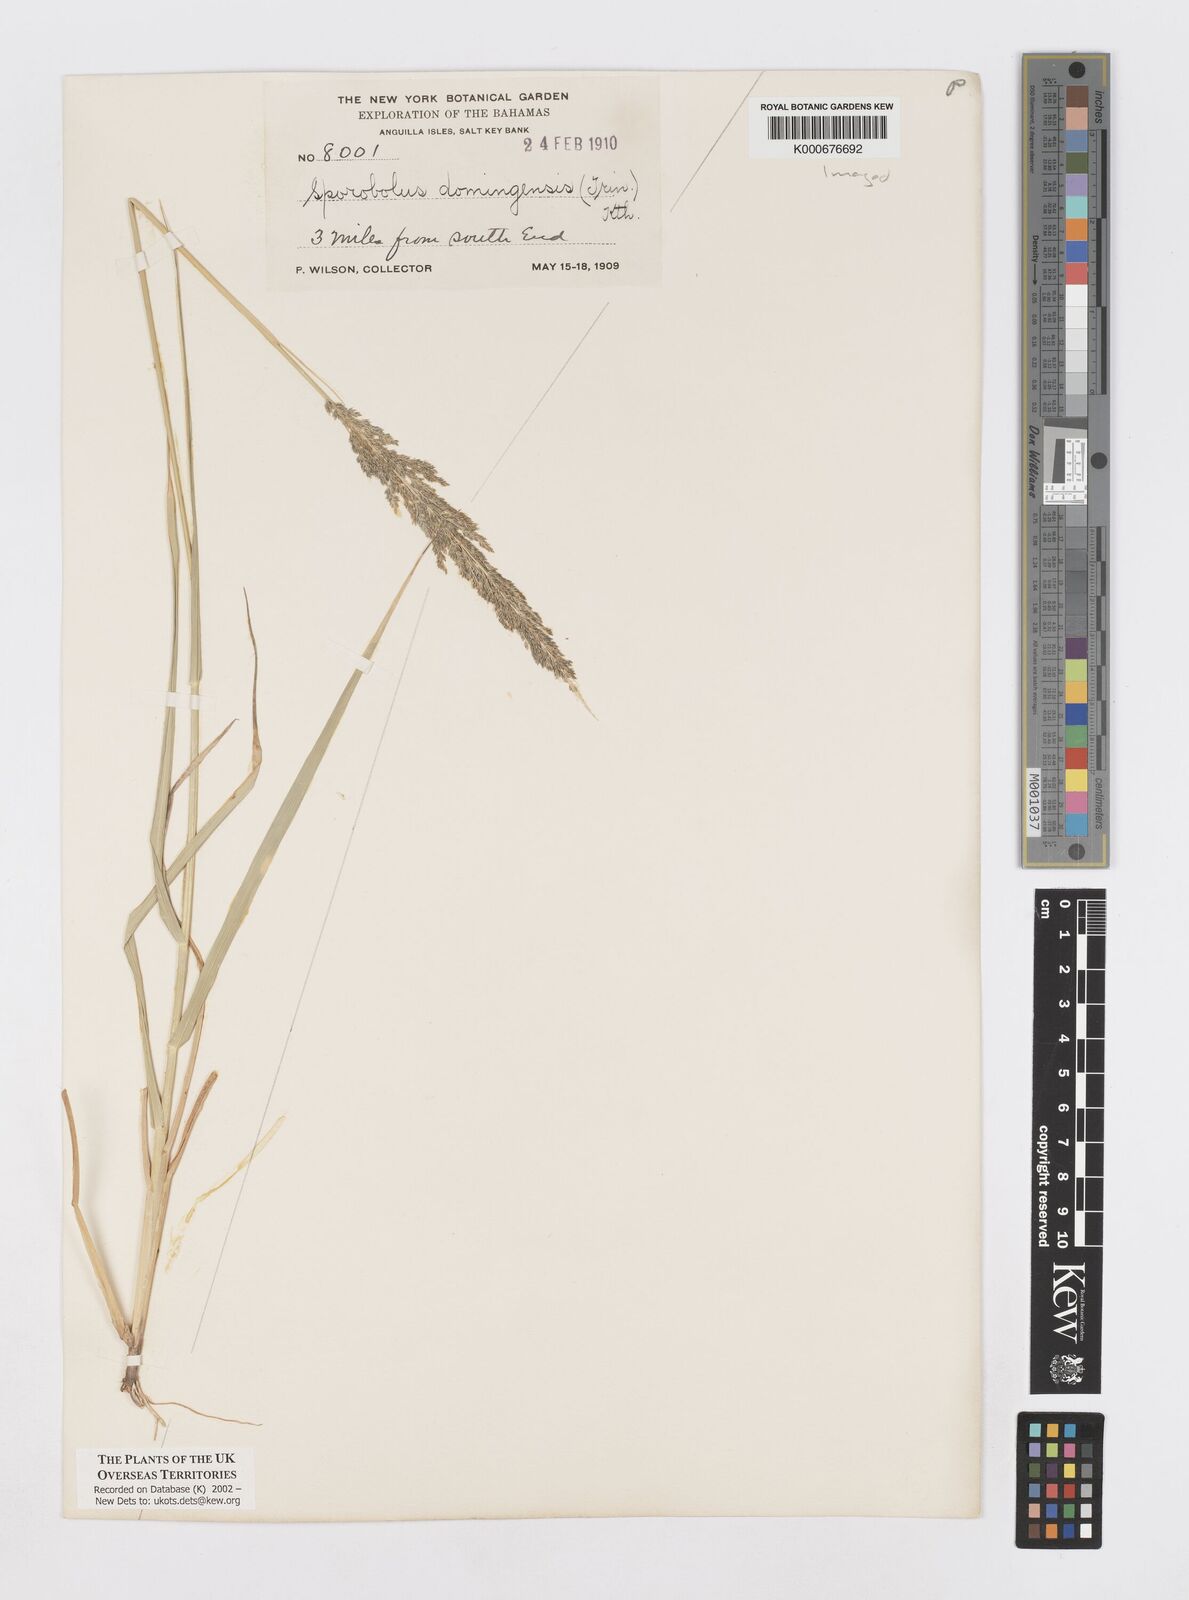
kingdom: Plantae
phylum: Tracheophyta
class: Liliopsida
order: Poales
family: Poaceae
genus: Sporobolus
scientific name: Sporobolus domingensis
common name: Coral dropseed
